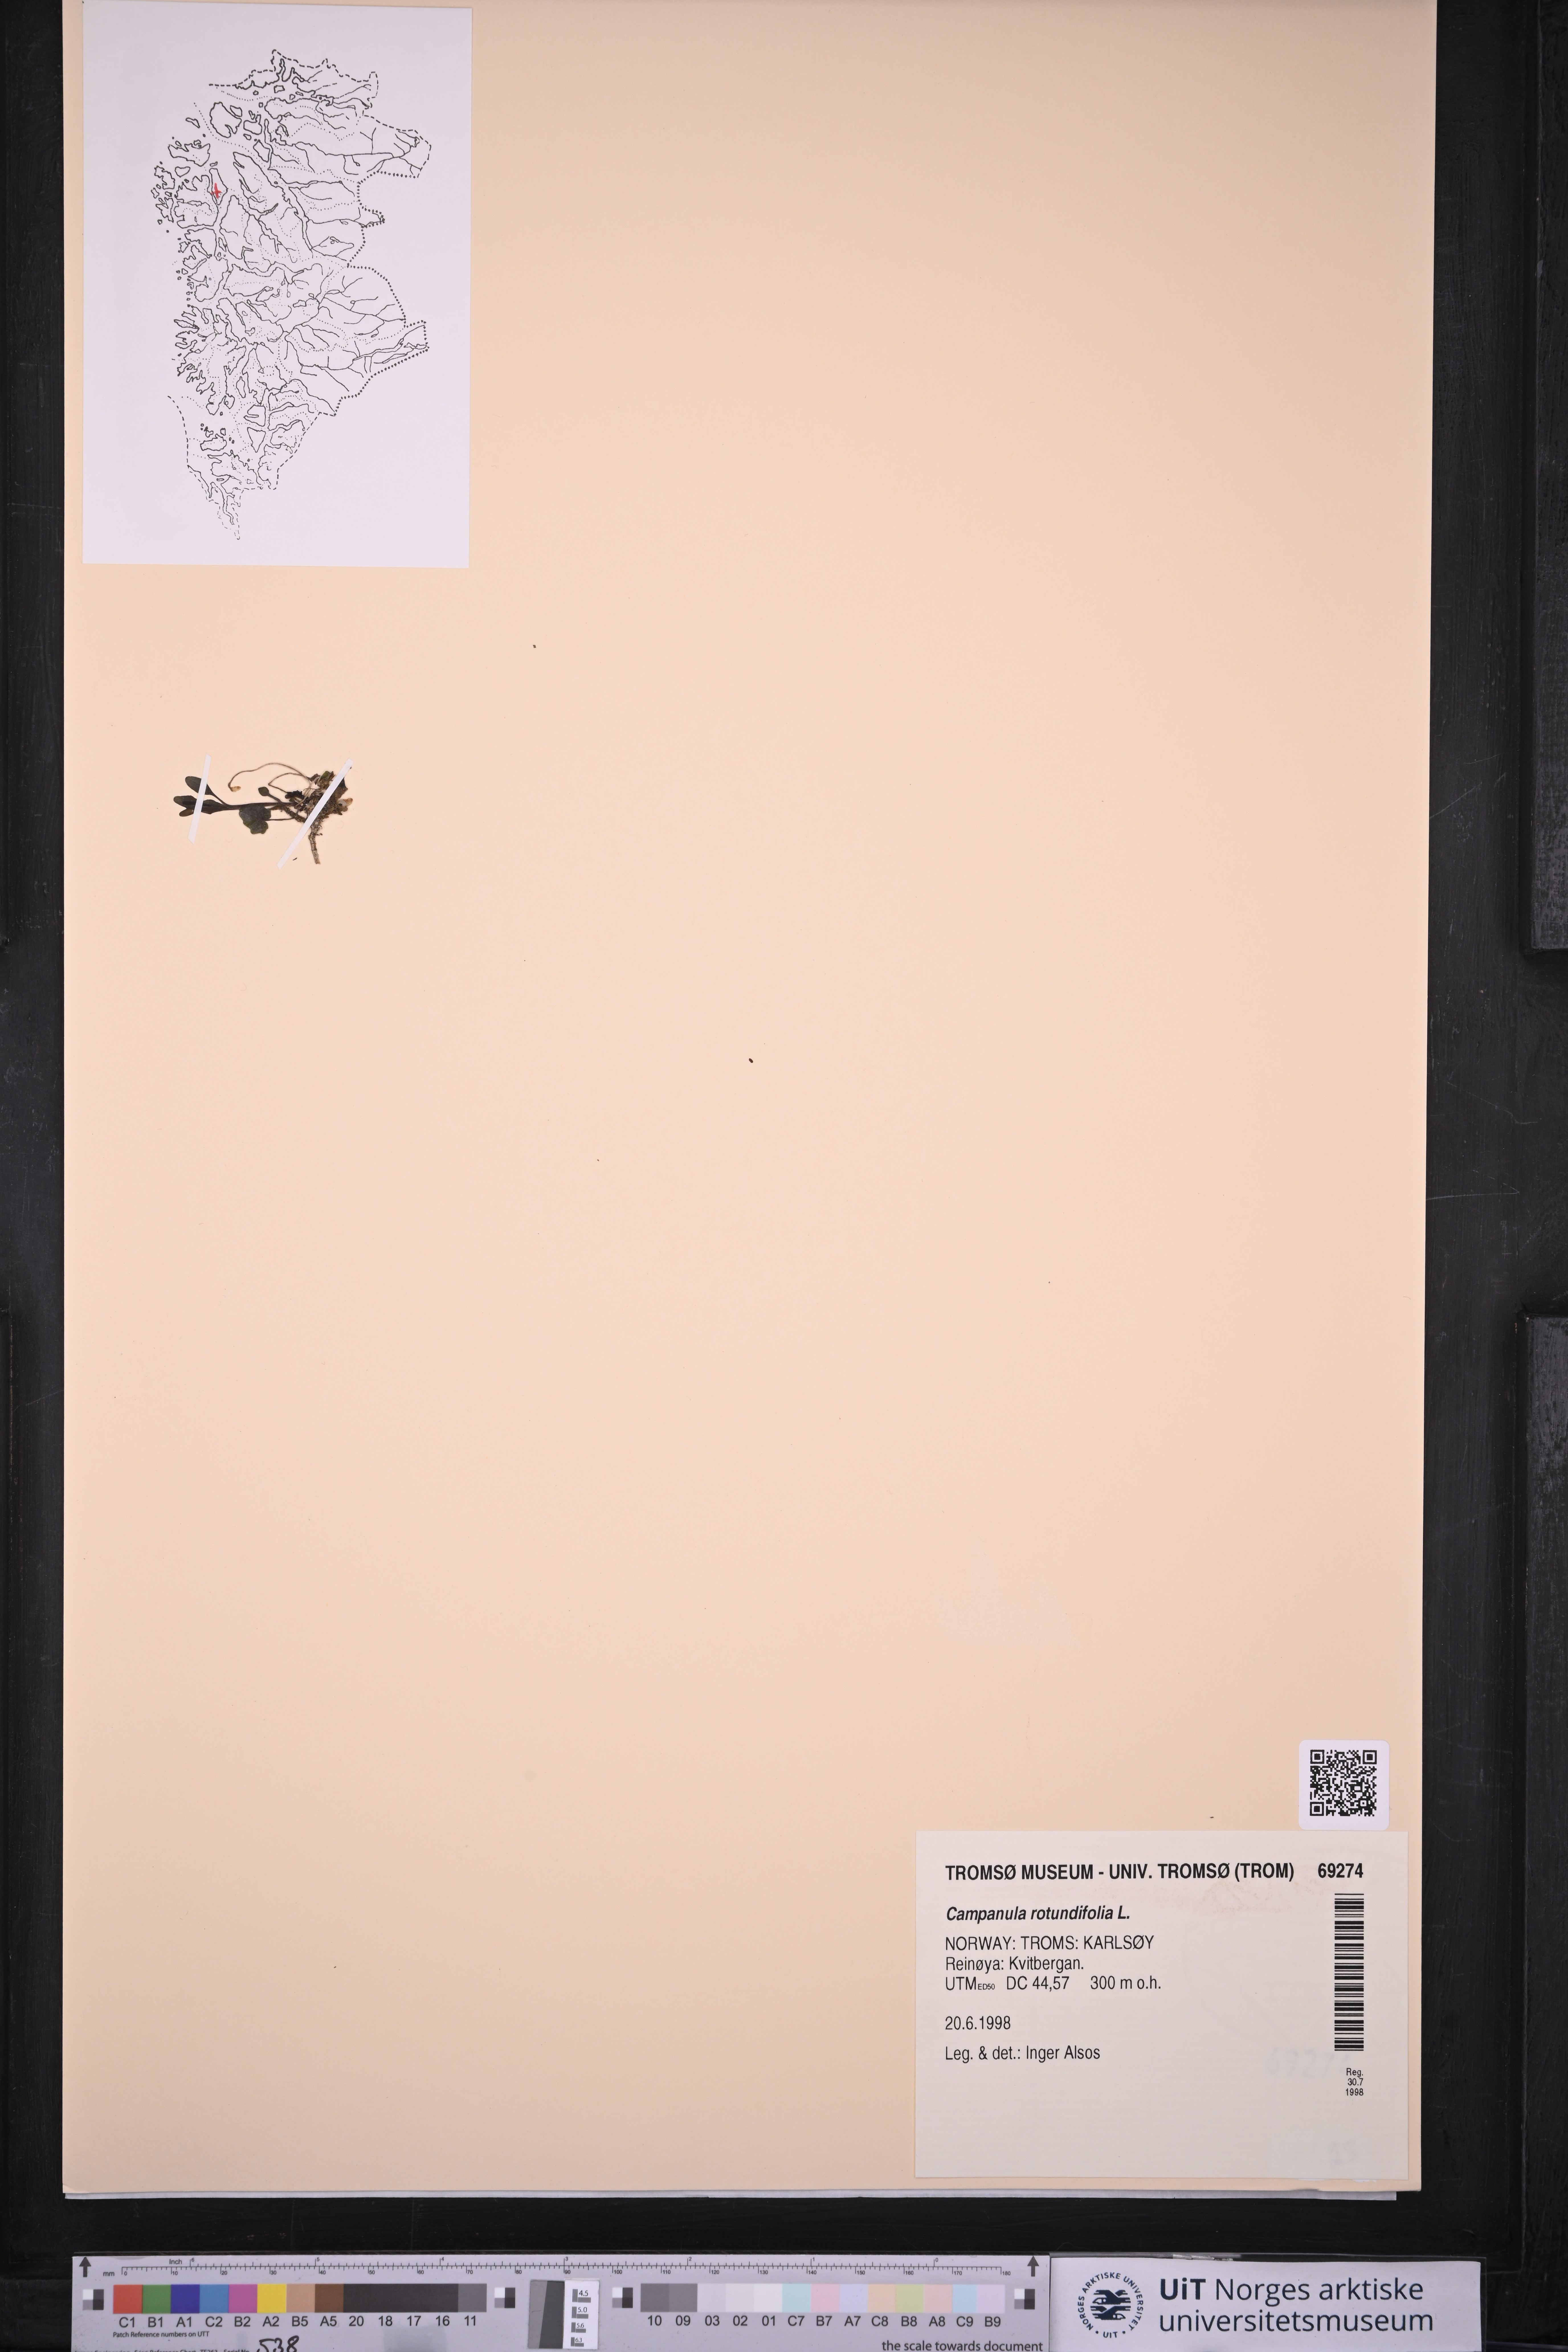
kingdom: Plantae
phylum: Tracheophyta
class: Magnoliopsida
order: Asterales
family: Campanulaceae
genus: Campanula
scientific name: Campanula rotundifolia
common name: Harebell
